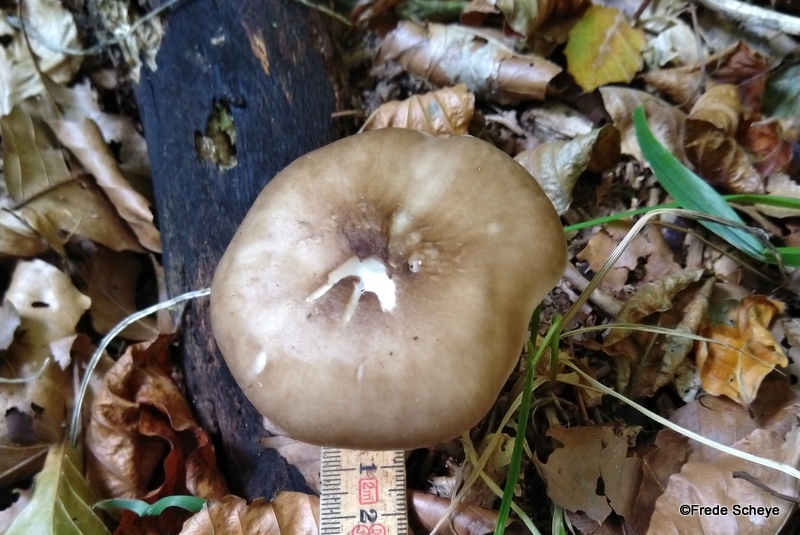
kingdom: Fungi
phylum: Basidiomycota
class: Agaricomycetes
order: Agaricales
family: Pluteaceae
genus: Pluteus
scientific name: Pluteus cervinus
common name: sodfarvet skærmhat
